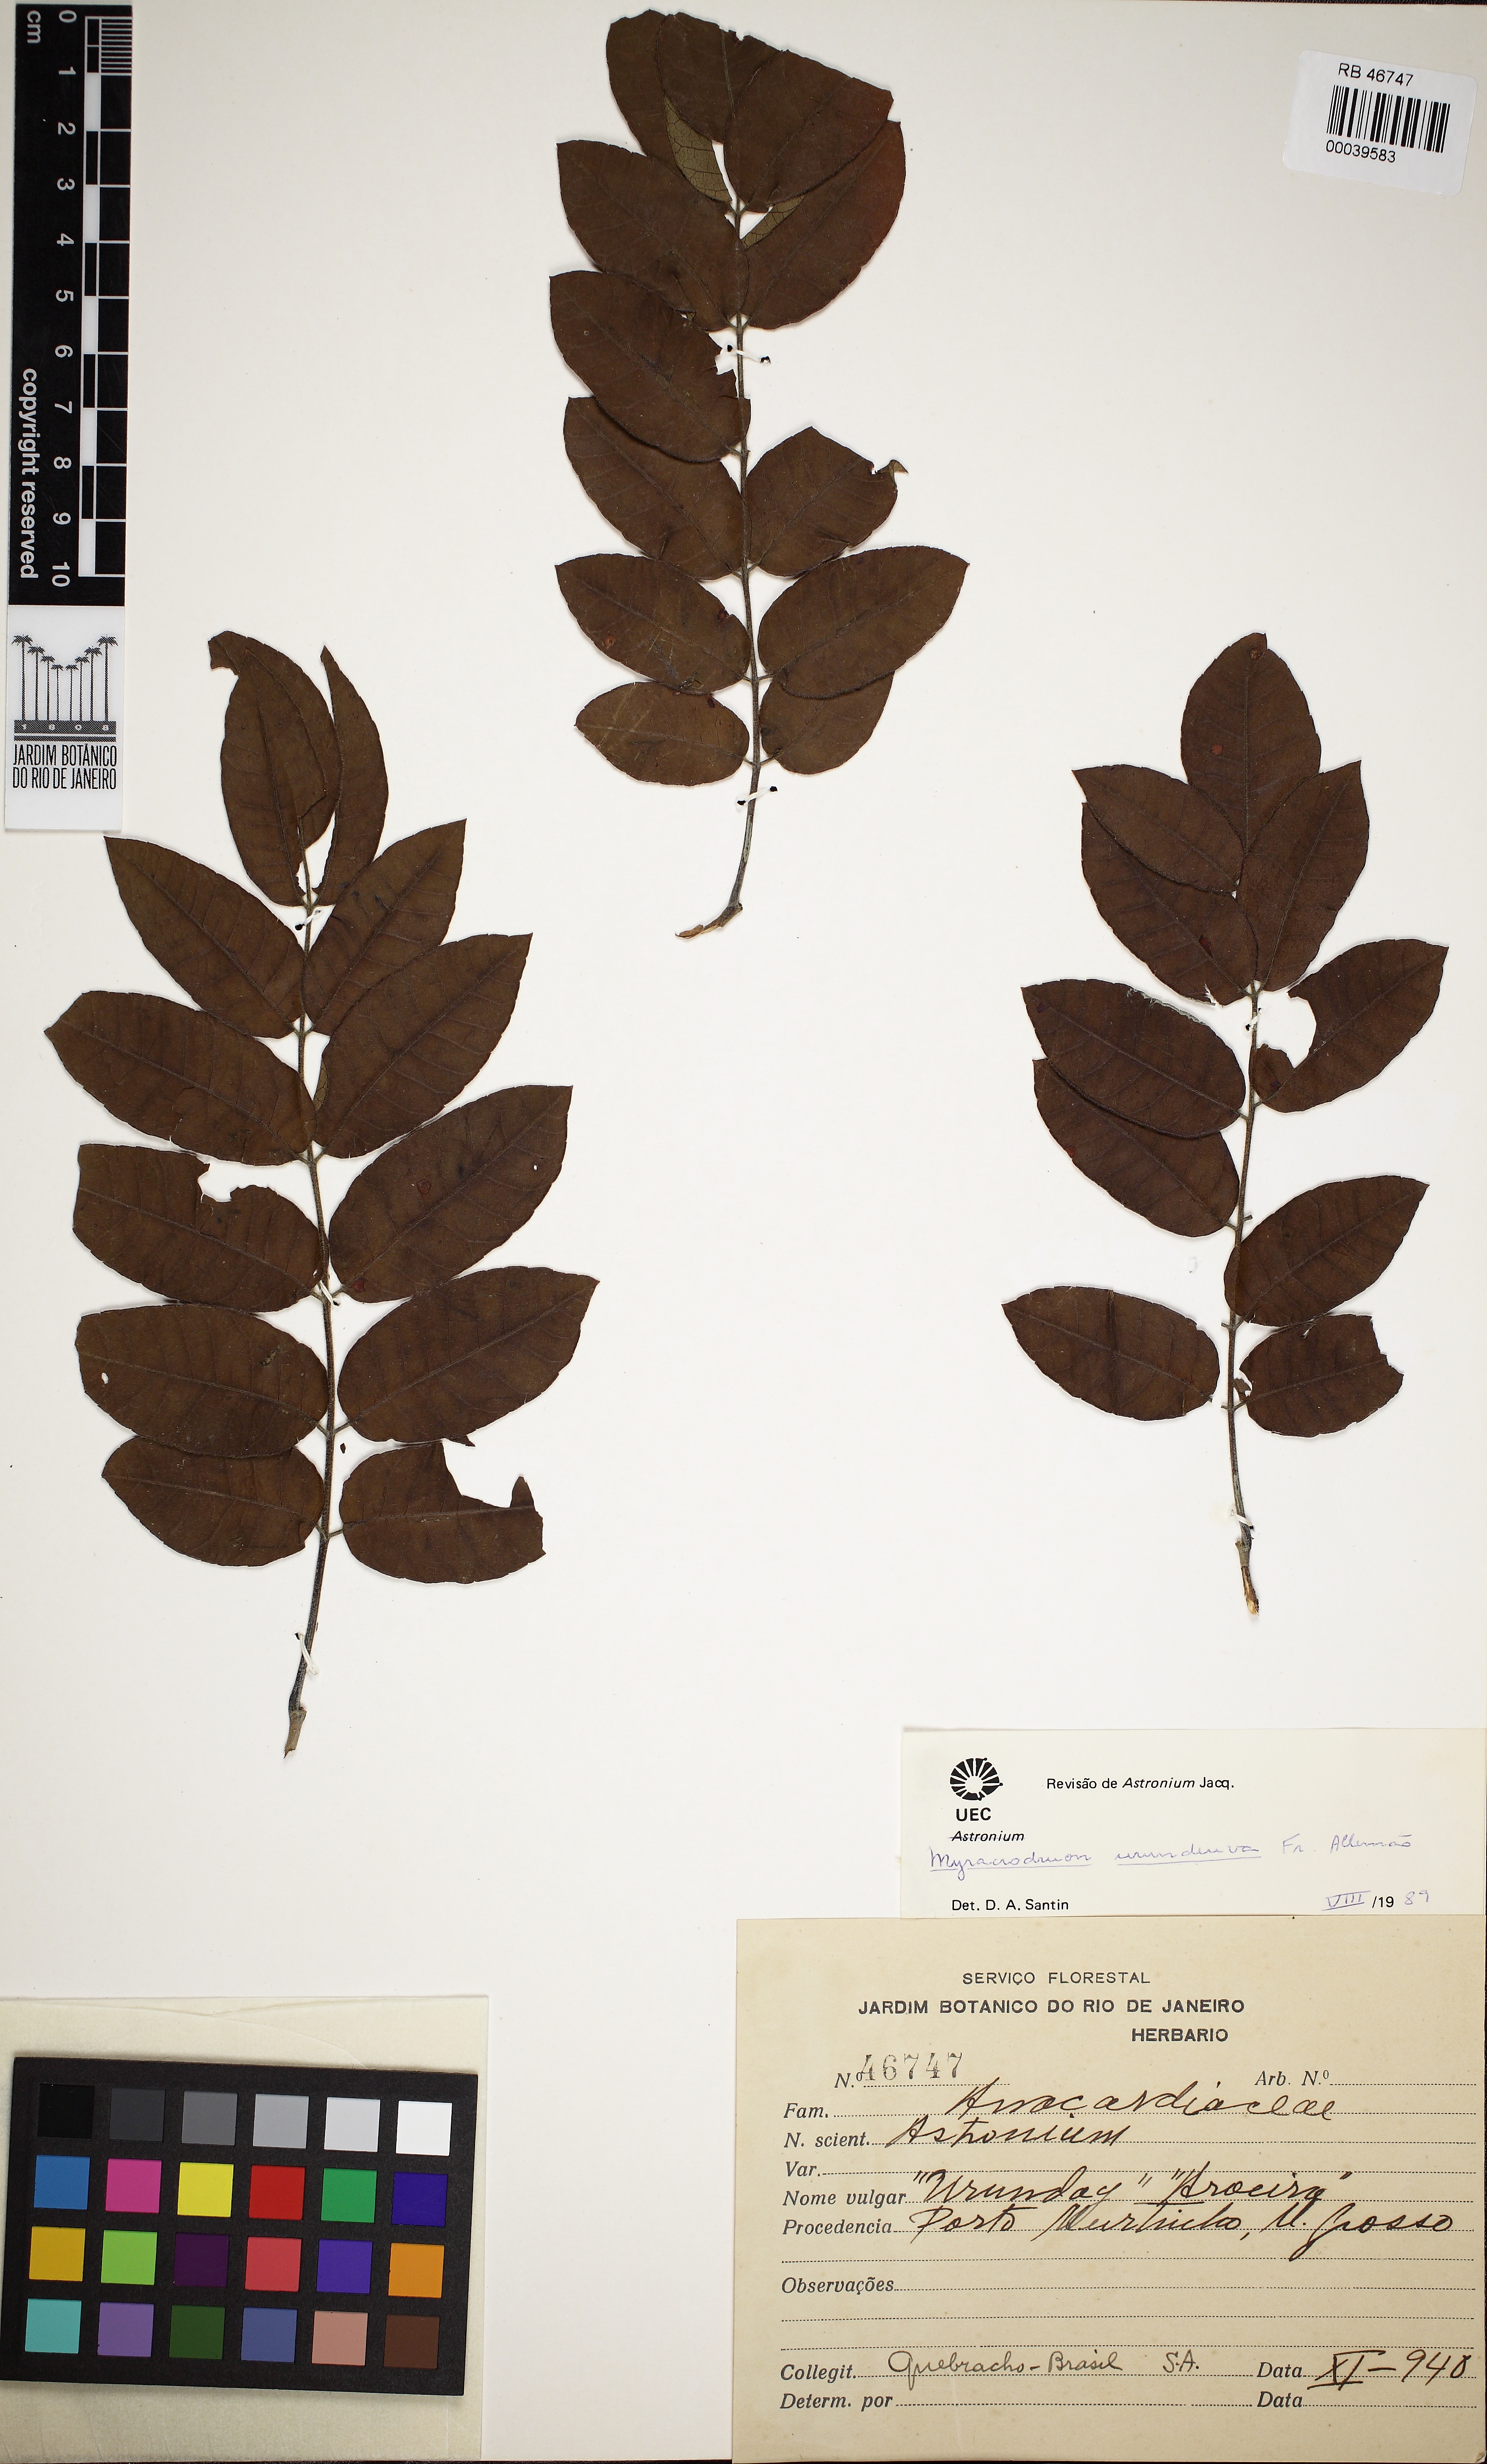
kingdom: Plantae
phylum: Tracheophyta
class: Magnoliopsida
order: Sapindales
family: Anacardiaceae
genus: Myracrodruon
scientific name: Myracrodruon urundeuva
